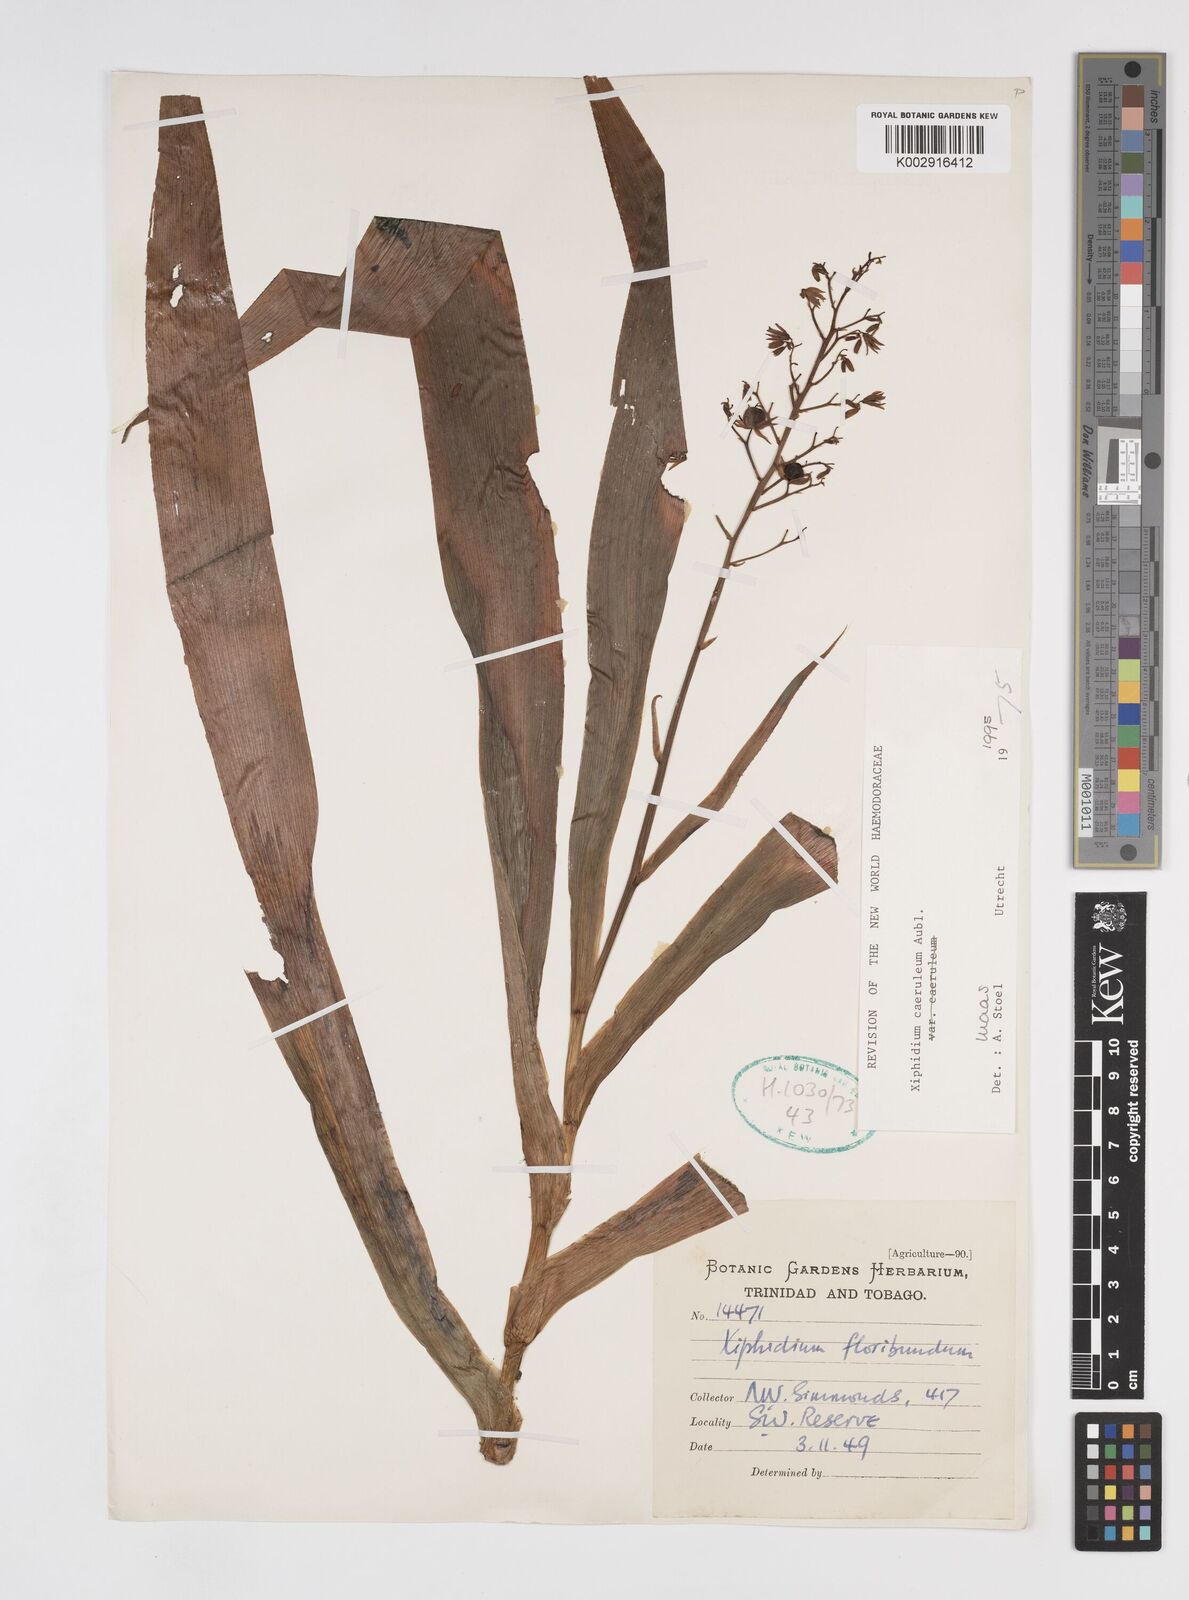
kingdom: Plantae
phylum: Tracheophyta
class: Liliopsida
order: Commelinales
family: Haemodoraceae
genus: Xiphidium
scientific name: Xiphidium caeruleum
